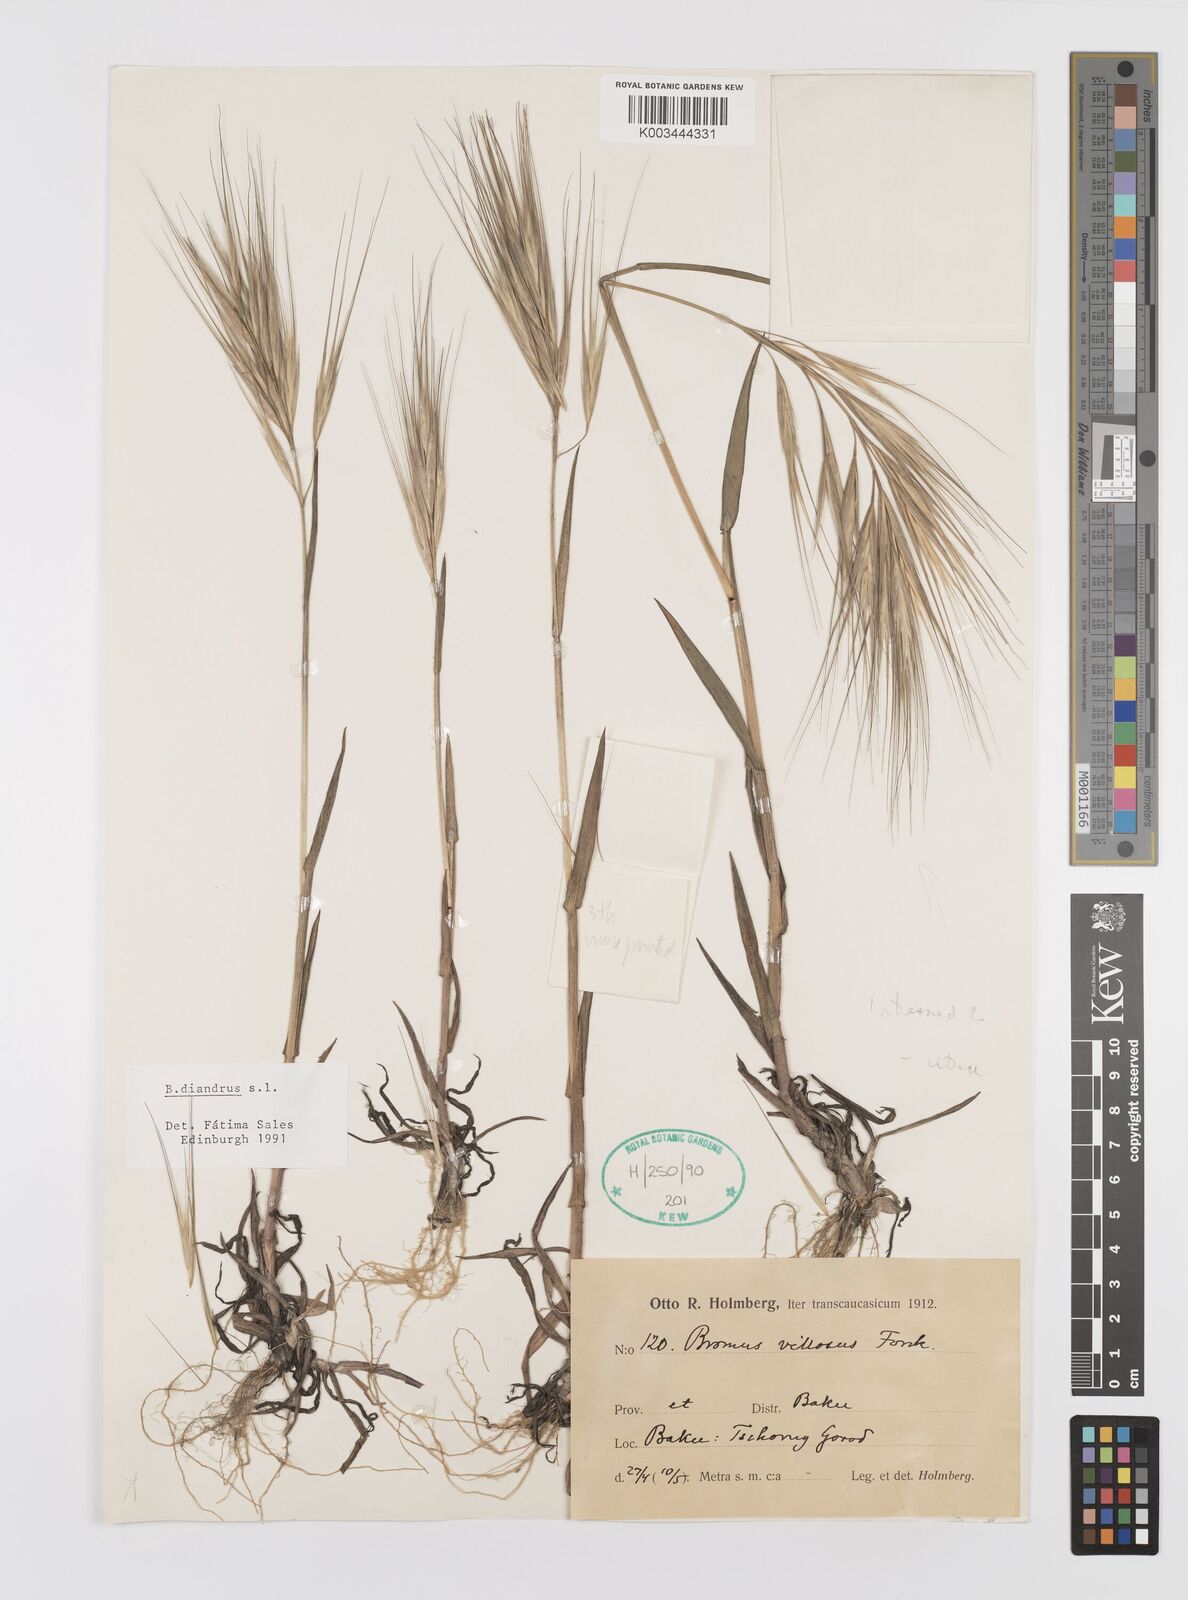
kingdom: Plantae
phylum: Tracheophyta
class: Liliopsida
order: Poales
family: Poaceae
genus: Bromus
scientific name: Bromus diandrus
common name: Ripgut brome
